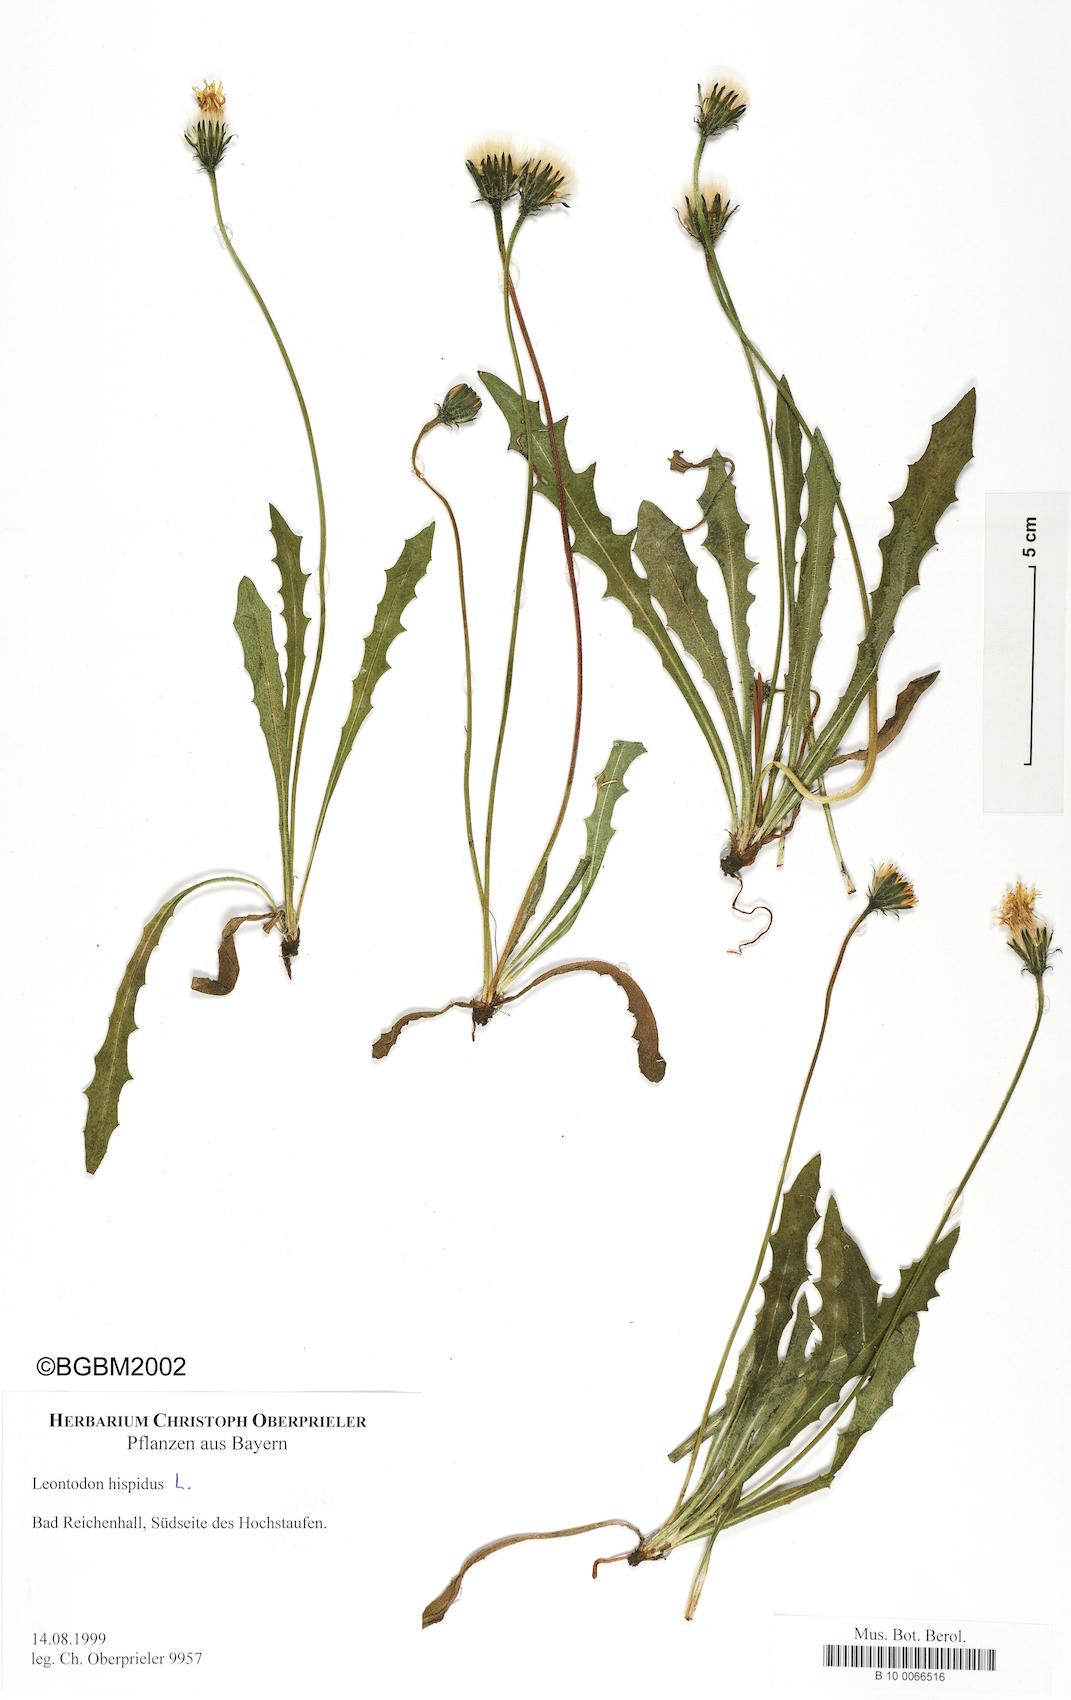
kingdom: Plantae
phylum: Tracheophyta
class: Magnoliopsida
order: Asterales
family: Asteraceae
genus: Leontodon
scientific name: Leontodon hispidus
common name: Rough hawkbit
